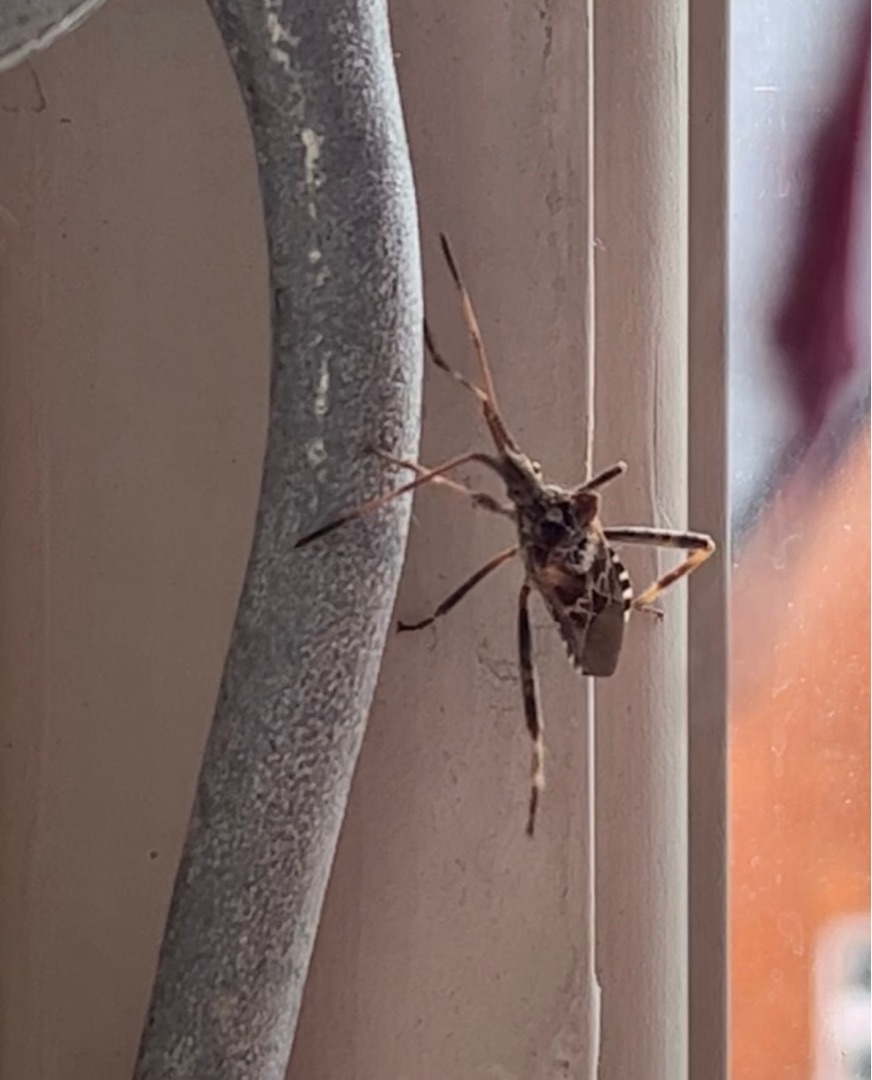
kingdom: Animalia
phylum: Arthropoda
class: Insecta
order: Hemiptera
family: Coreidae
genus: Leptoglossus
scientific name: Leptoglossus occidentalis
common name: Amerikansk fyrretæge
